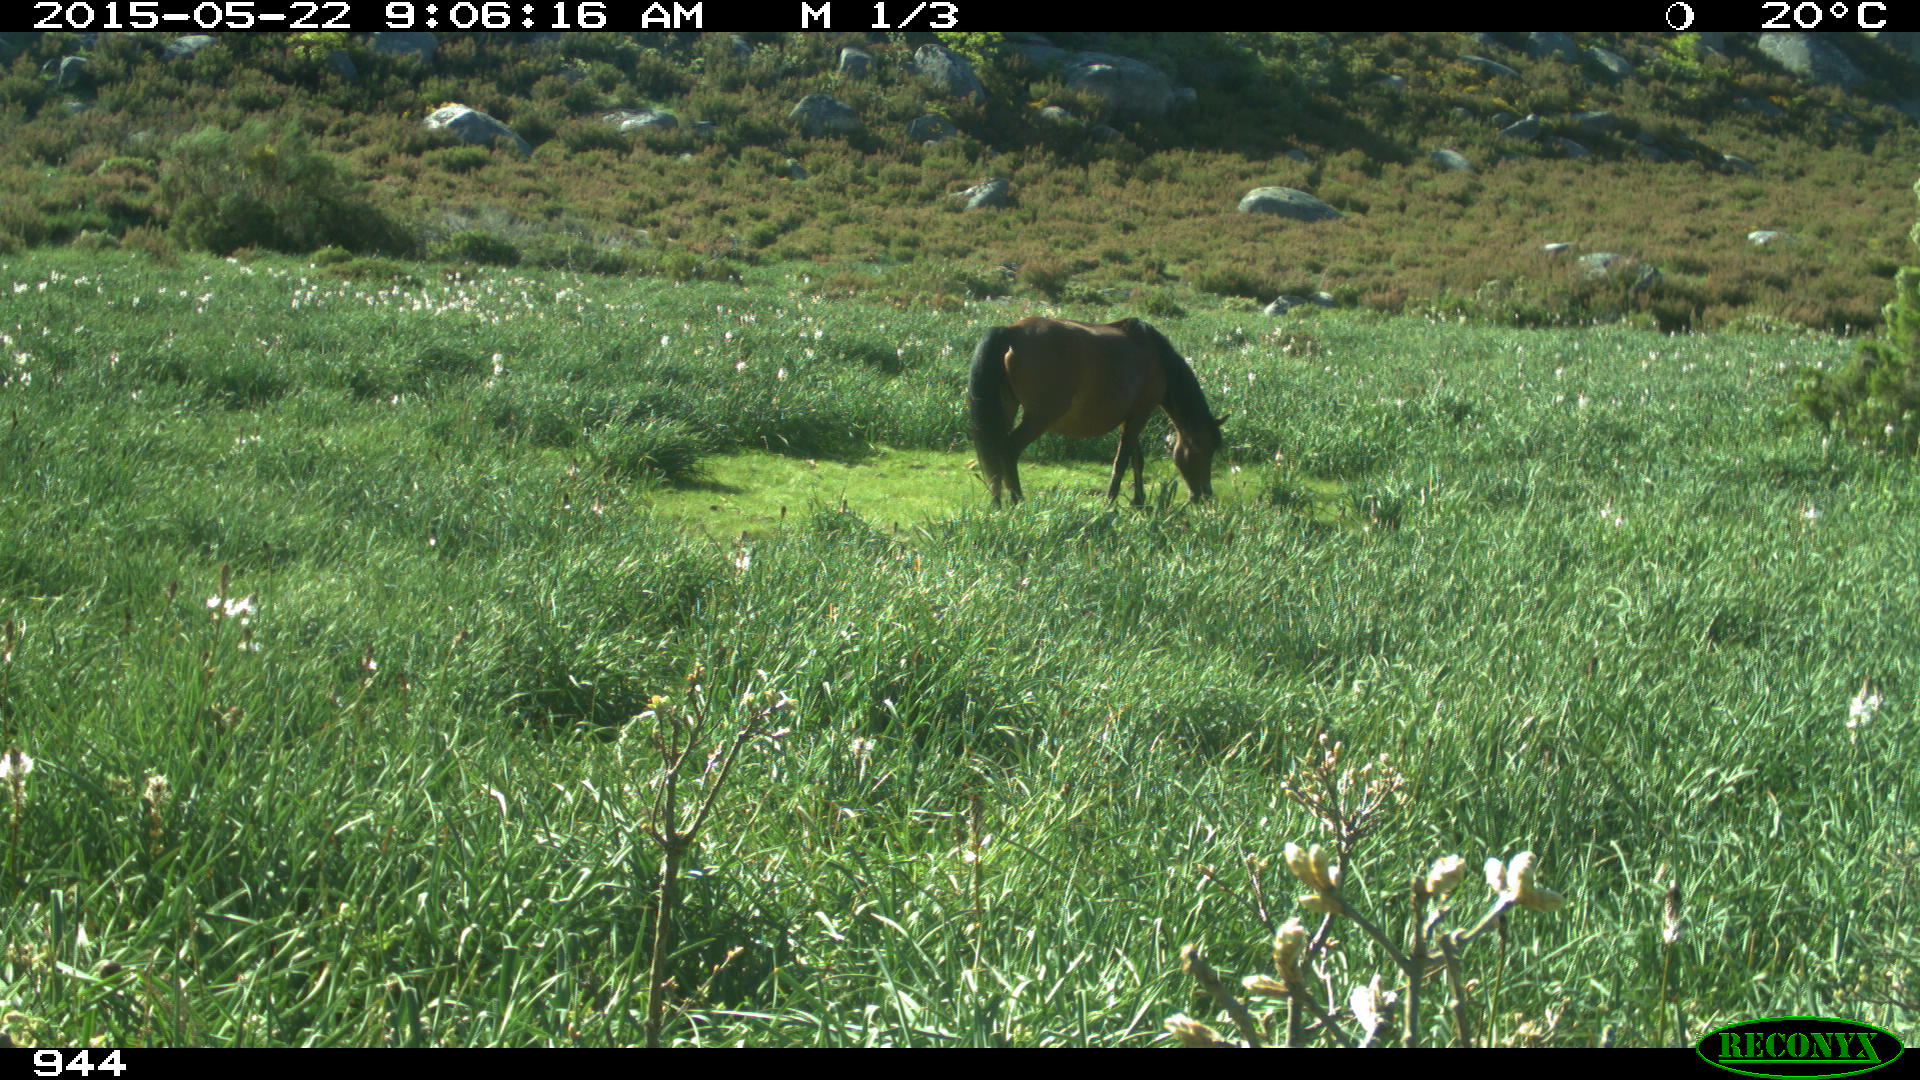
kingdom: Animalia
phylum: Chordata
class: Mammalia
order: Perissodactyla
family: Equidae
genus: Equus
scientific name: Equus caballus
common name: Horse
